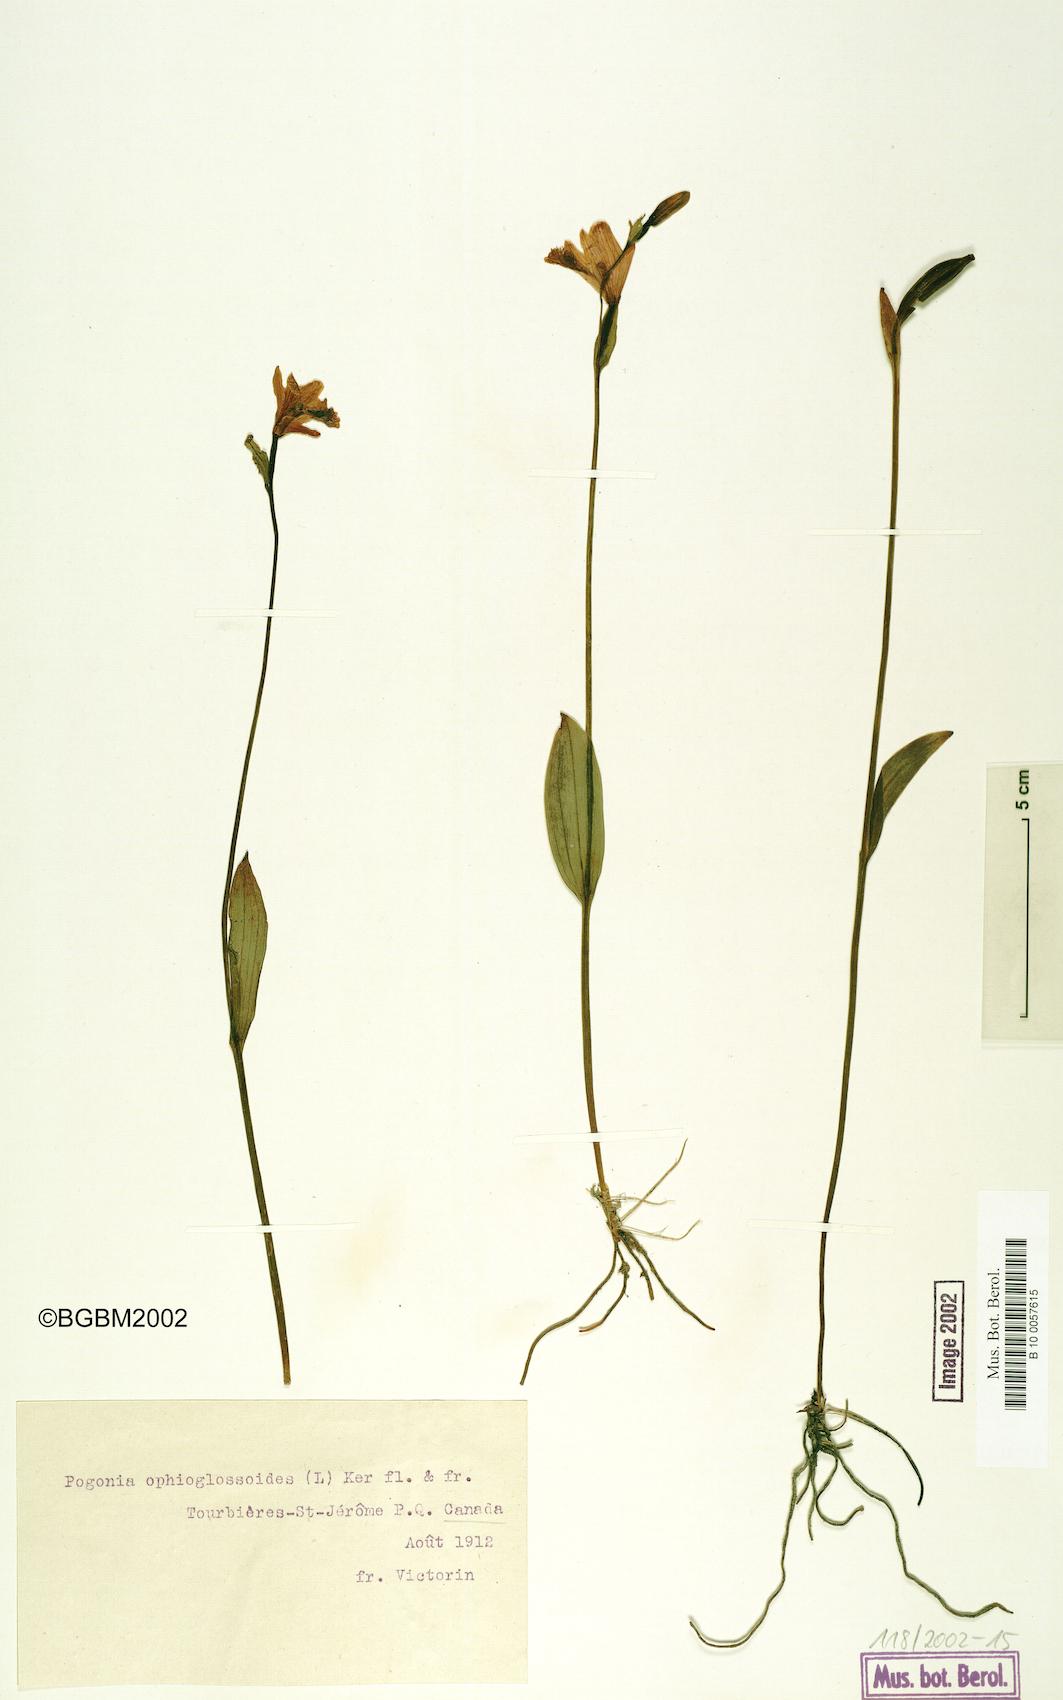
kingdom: Plantae
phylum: Tracheophyta
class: Liliopsida
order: Asparagales
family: Orchidaceae
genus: Pogonia
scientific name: Pogonia ophioglossoides
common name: Rose pogonia
